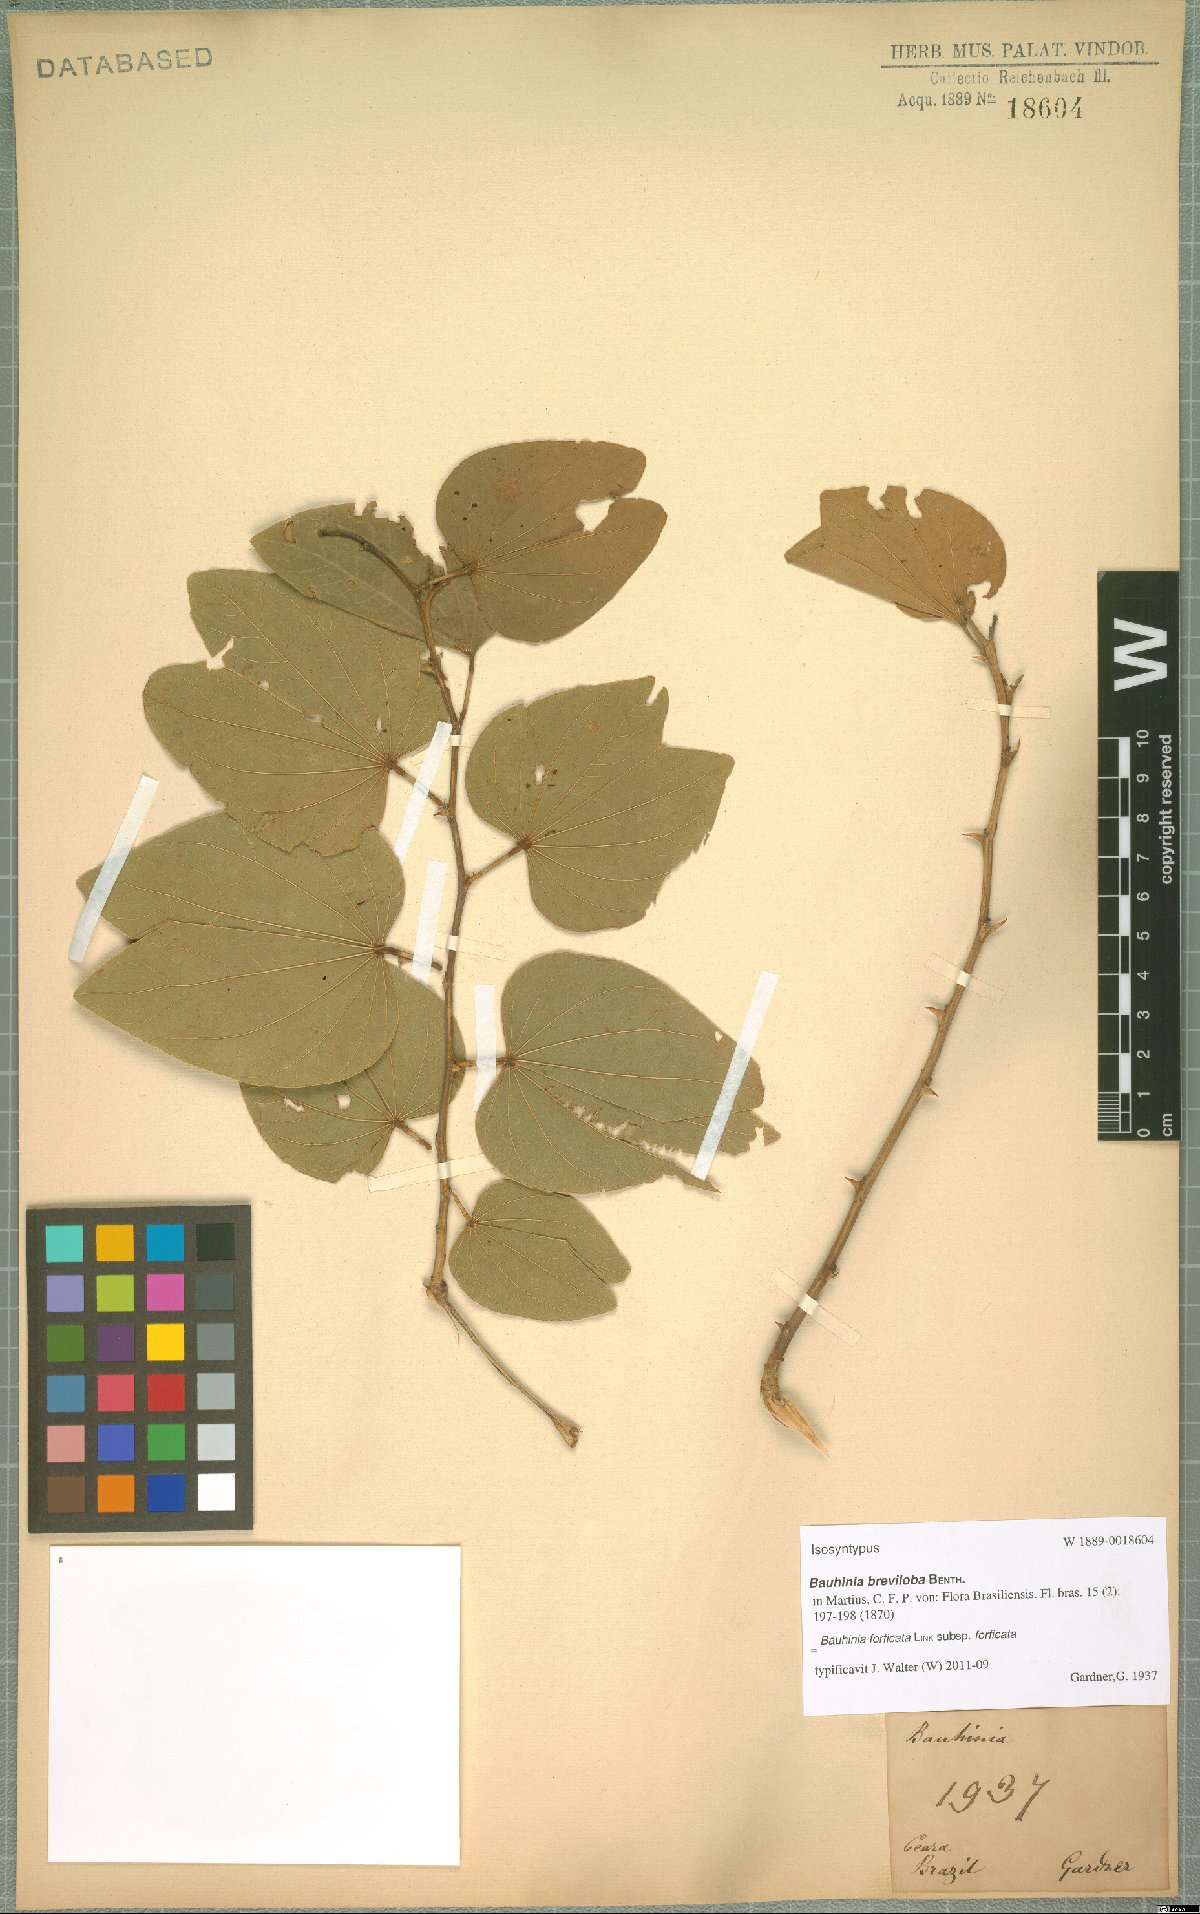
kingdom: Plantae
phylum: Tracheophyta
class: Magnoliopsida
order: Fabales
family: Fabaceae
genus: Bauhinia
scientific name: Bauhinia forficata
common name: Orchid tree
